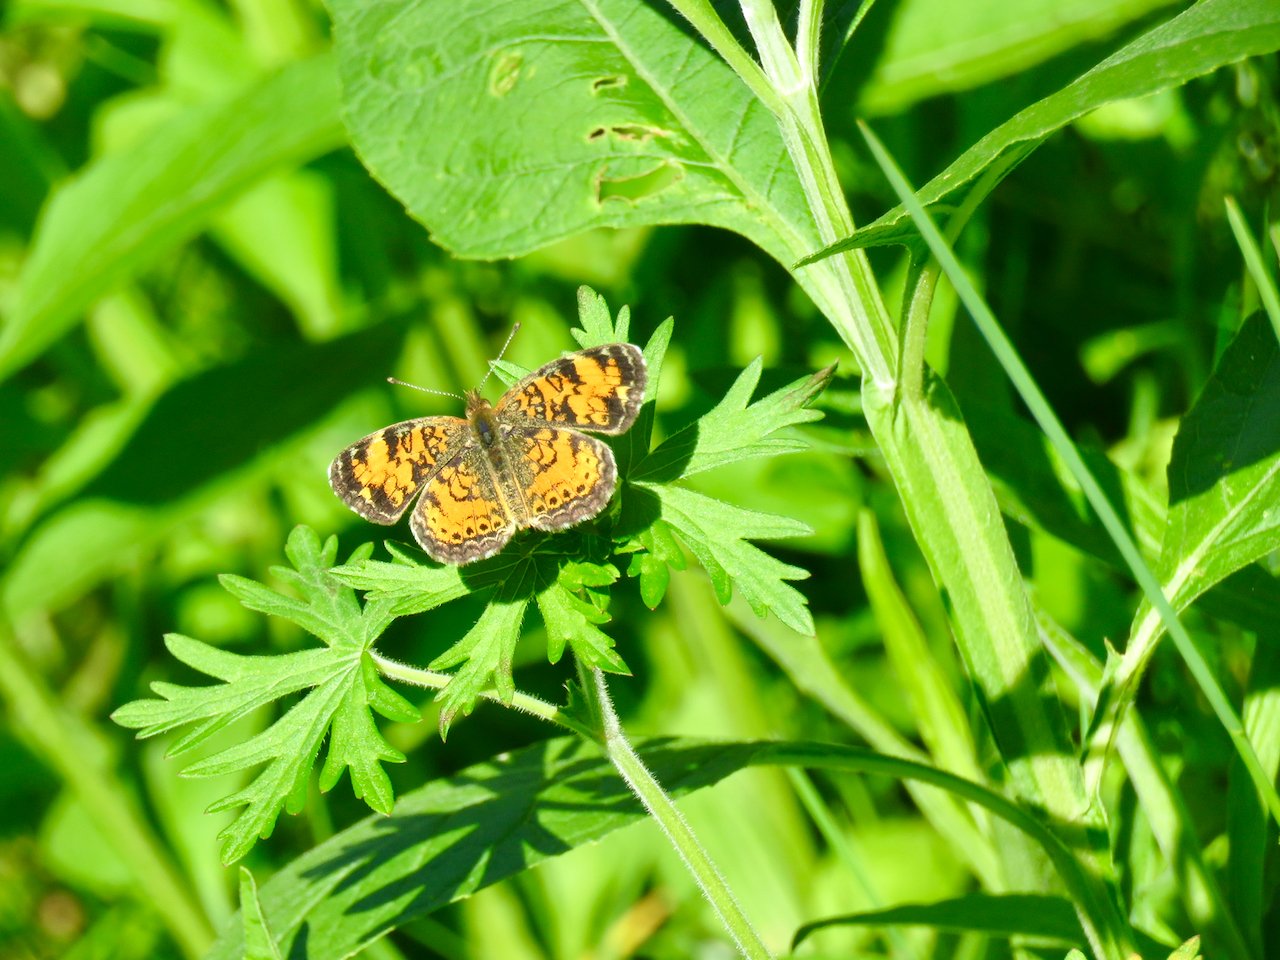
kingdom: Animalia
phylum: Arthropoda
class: Insecta
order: Lepidoptera
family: Nymphalidae
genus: Phyciodes
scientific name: Phyciodes tharos
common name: Pearl Crescent
